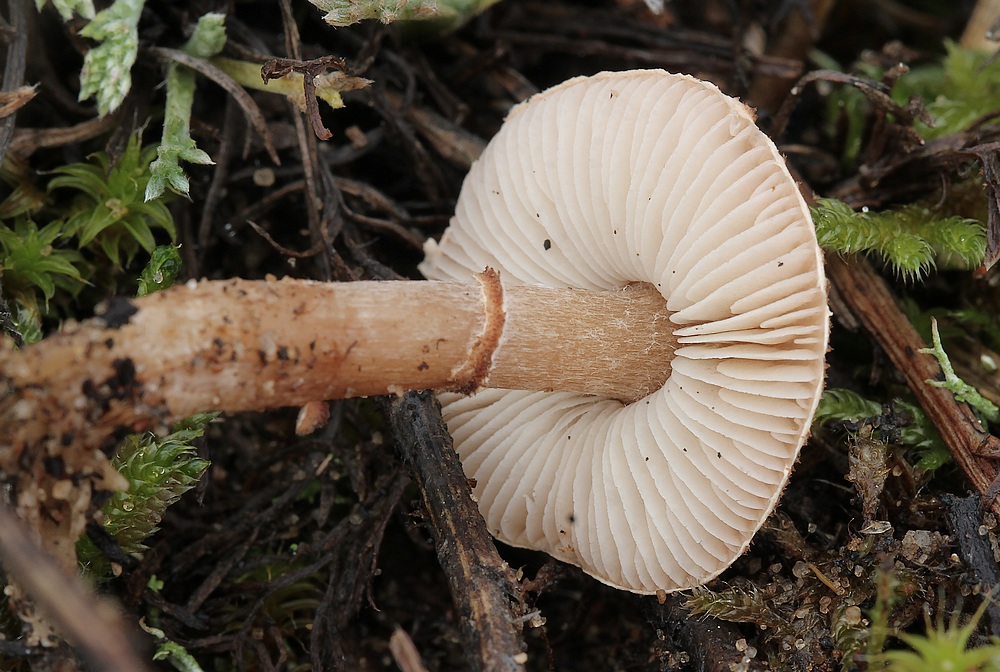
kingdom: Fungi
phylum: Basidiomycota
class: Agaricomycetes
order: Agaricales
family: Agaricaceae
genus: Lepiota
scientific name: Lepiota pseudolilacea
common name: gråbrun parasolhat
